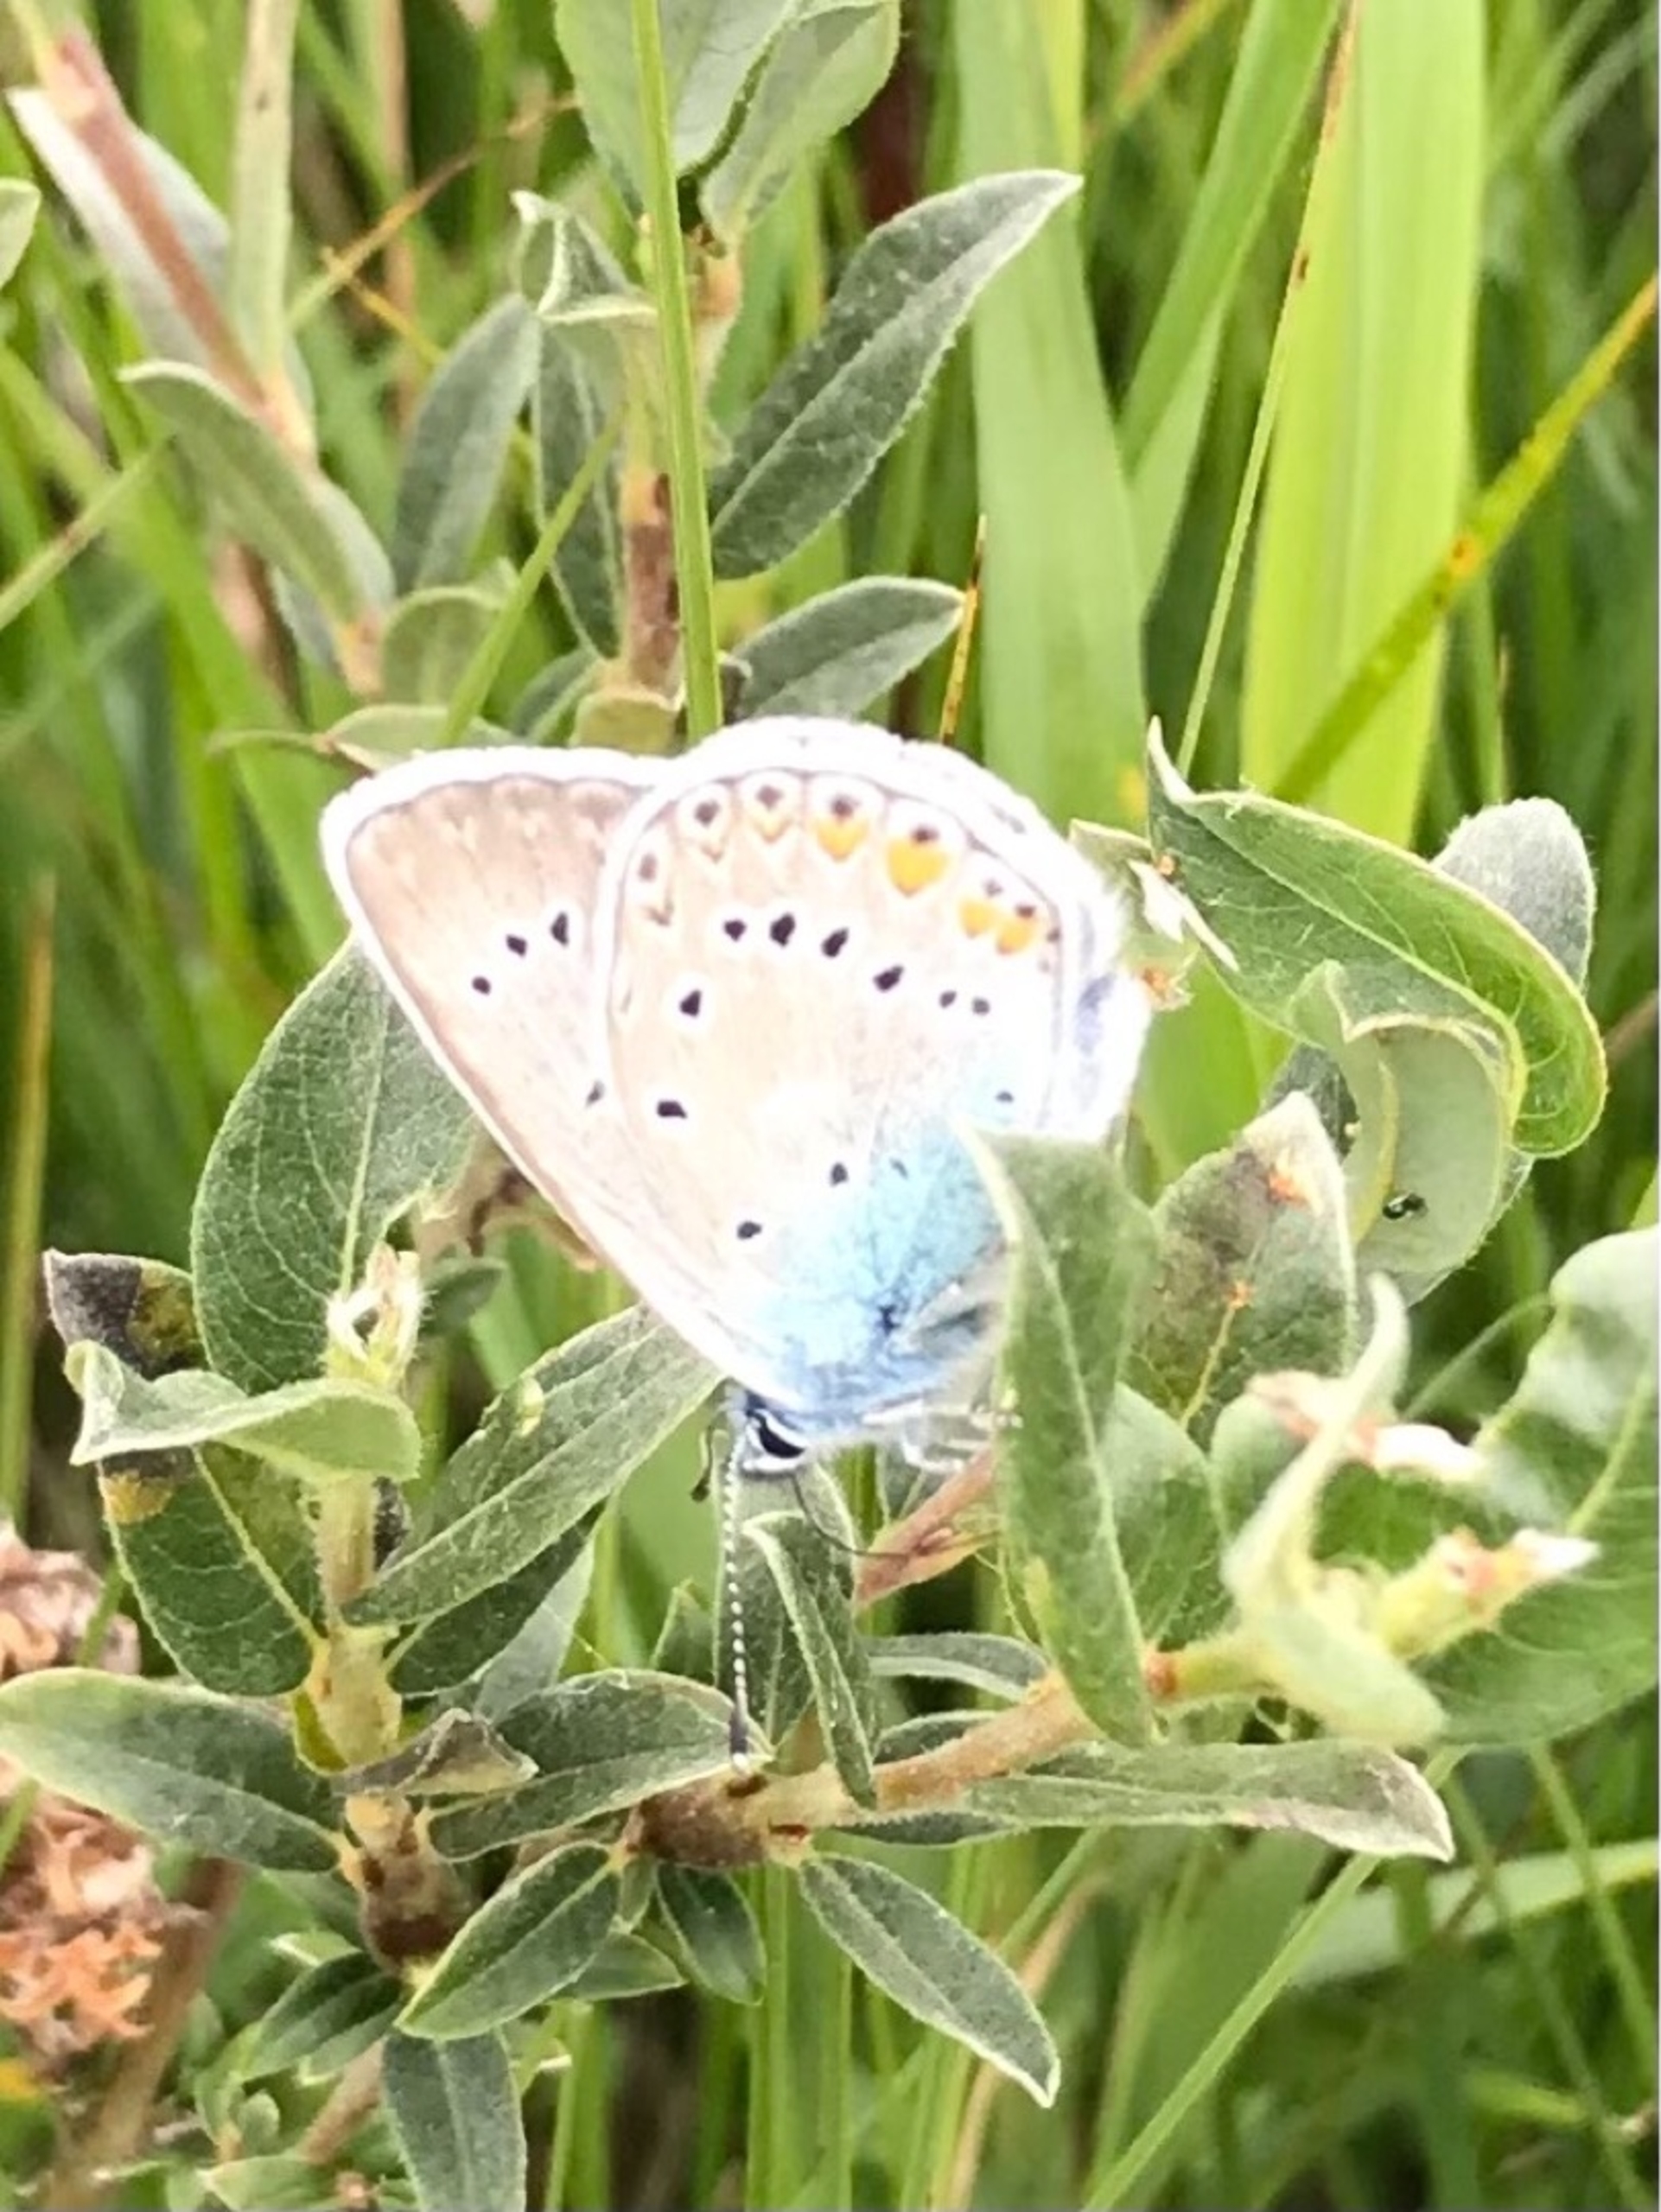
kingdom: Animalia
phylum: Arthropoda
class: Insecta
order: Lepidoptera
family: Lycaenidae
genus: Plebejus
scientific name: Plebejus amanda
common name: Isblåfugl
